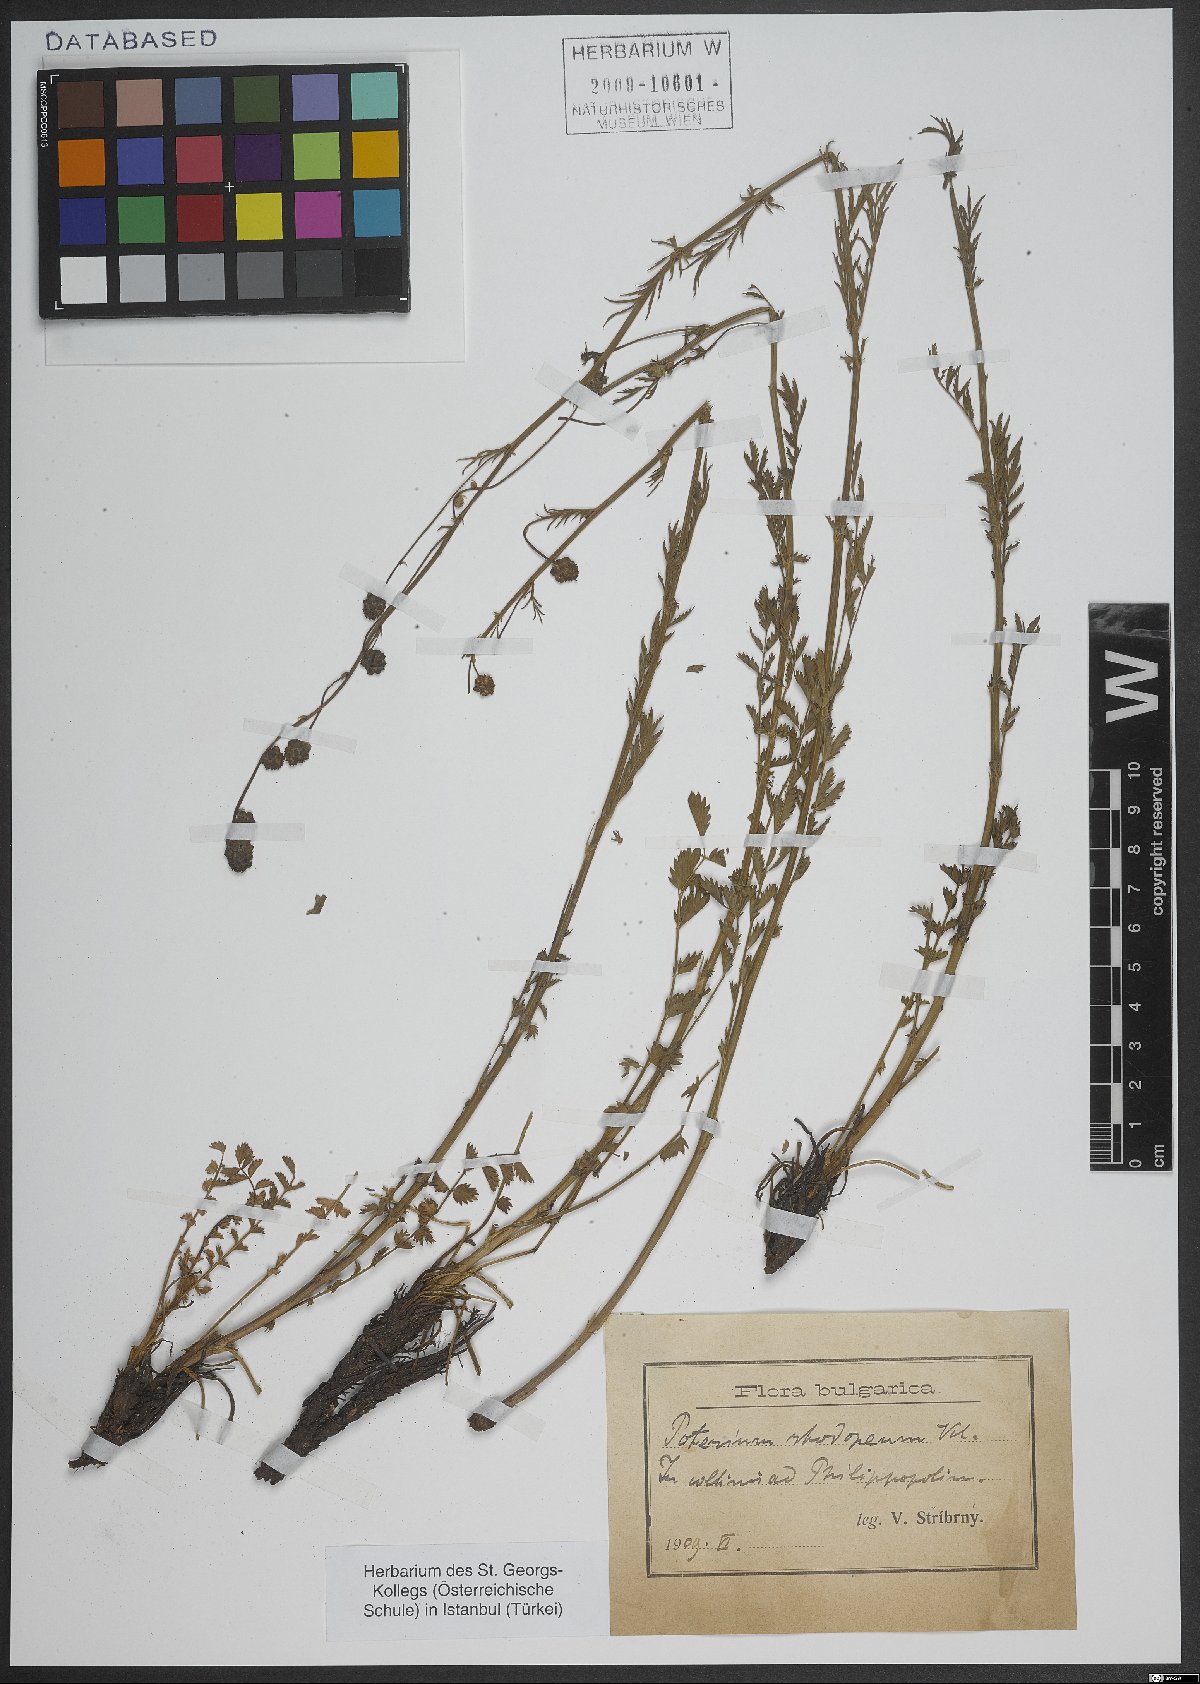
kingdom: Plantae
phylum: Tracheophyta
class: Magnoliopsida
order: Rosales
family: Rosaceae
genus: Poterium
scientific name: Poterium sanguisorba
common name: Salad burnet
